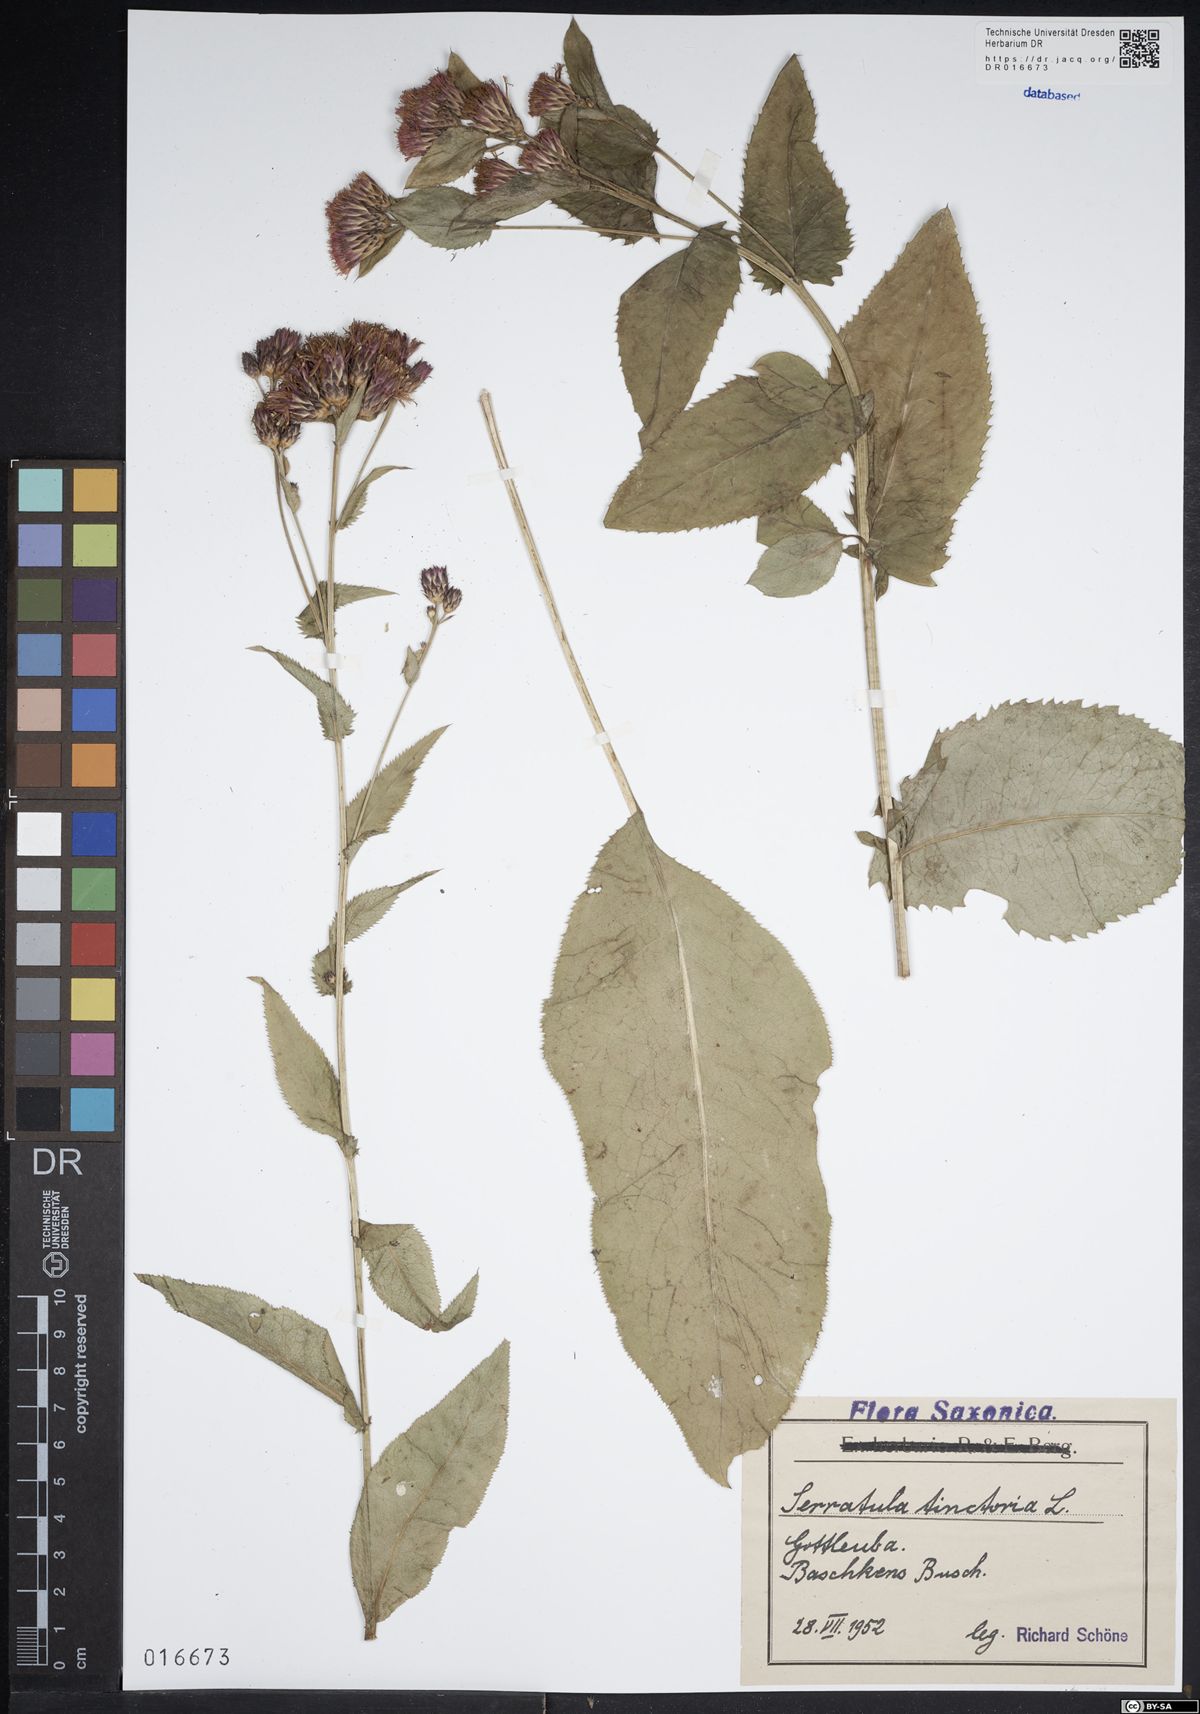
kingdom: Plantae
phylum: Tracheophyta
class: Magnoliopsida
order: Asterales
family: Asteraceae
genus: Serratula
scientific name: Serratula tinctoria
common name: Saw-wort
